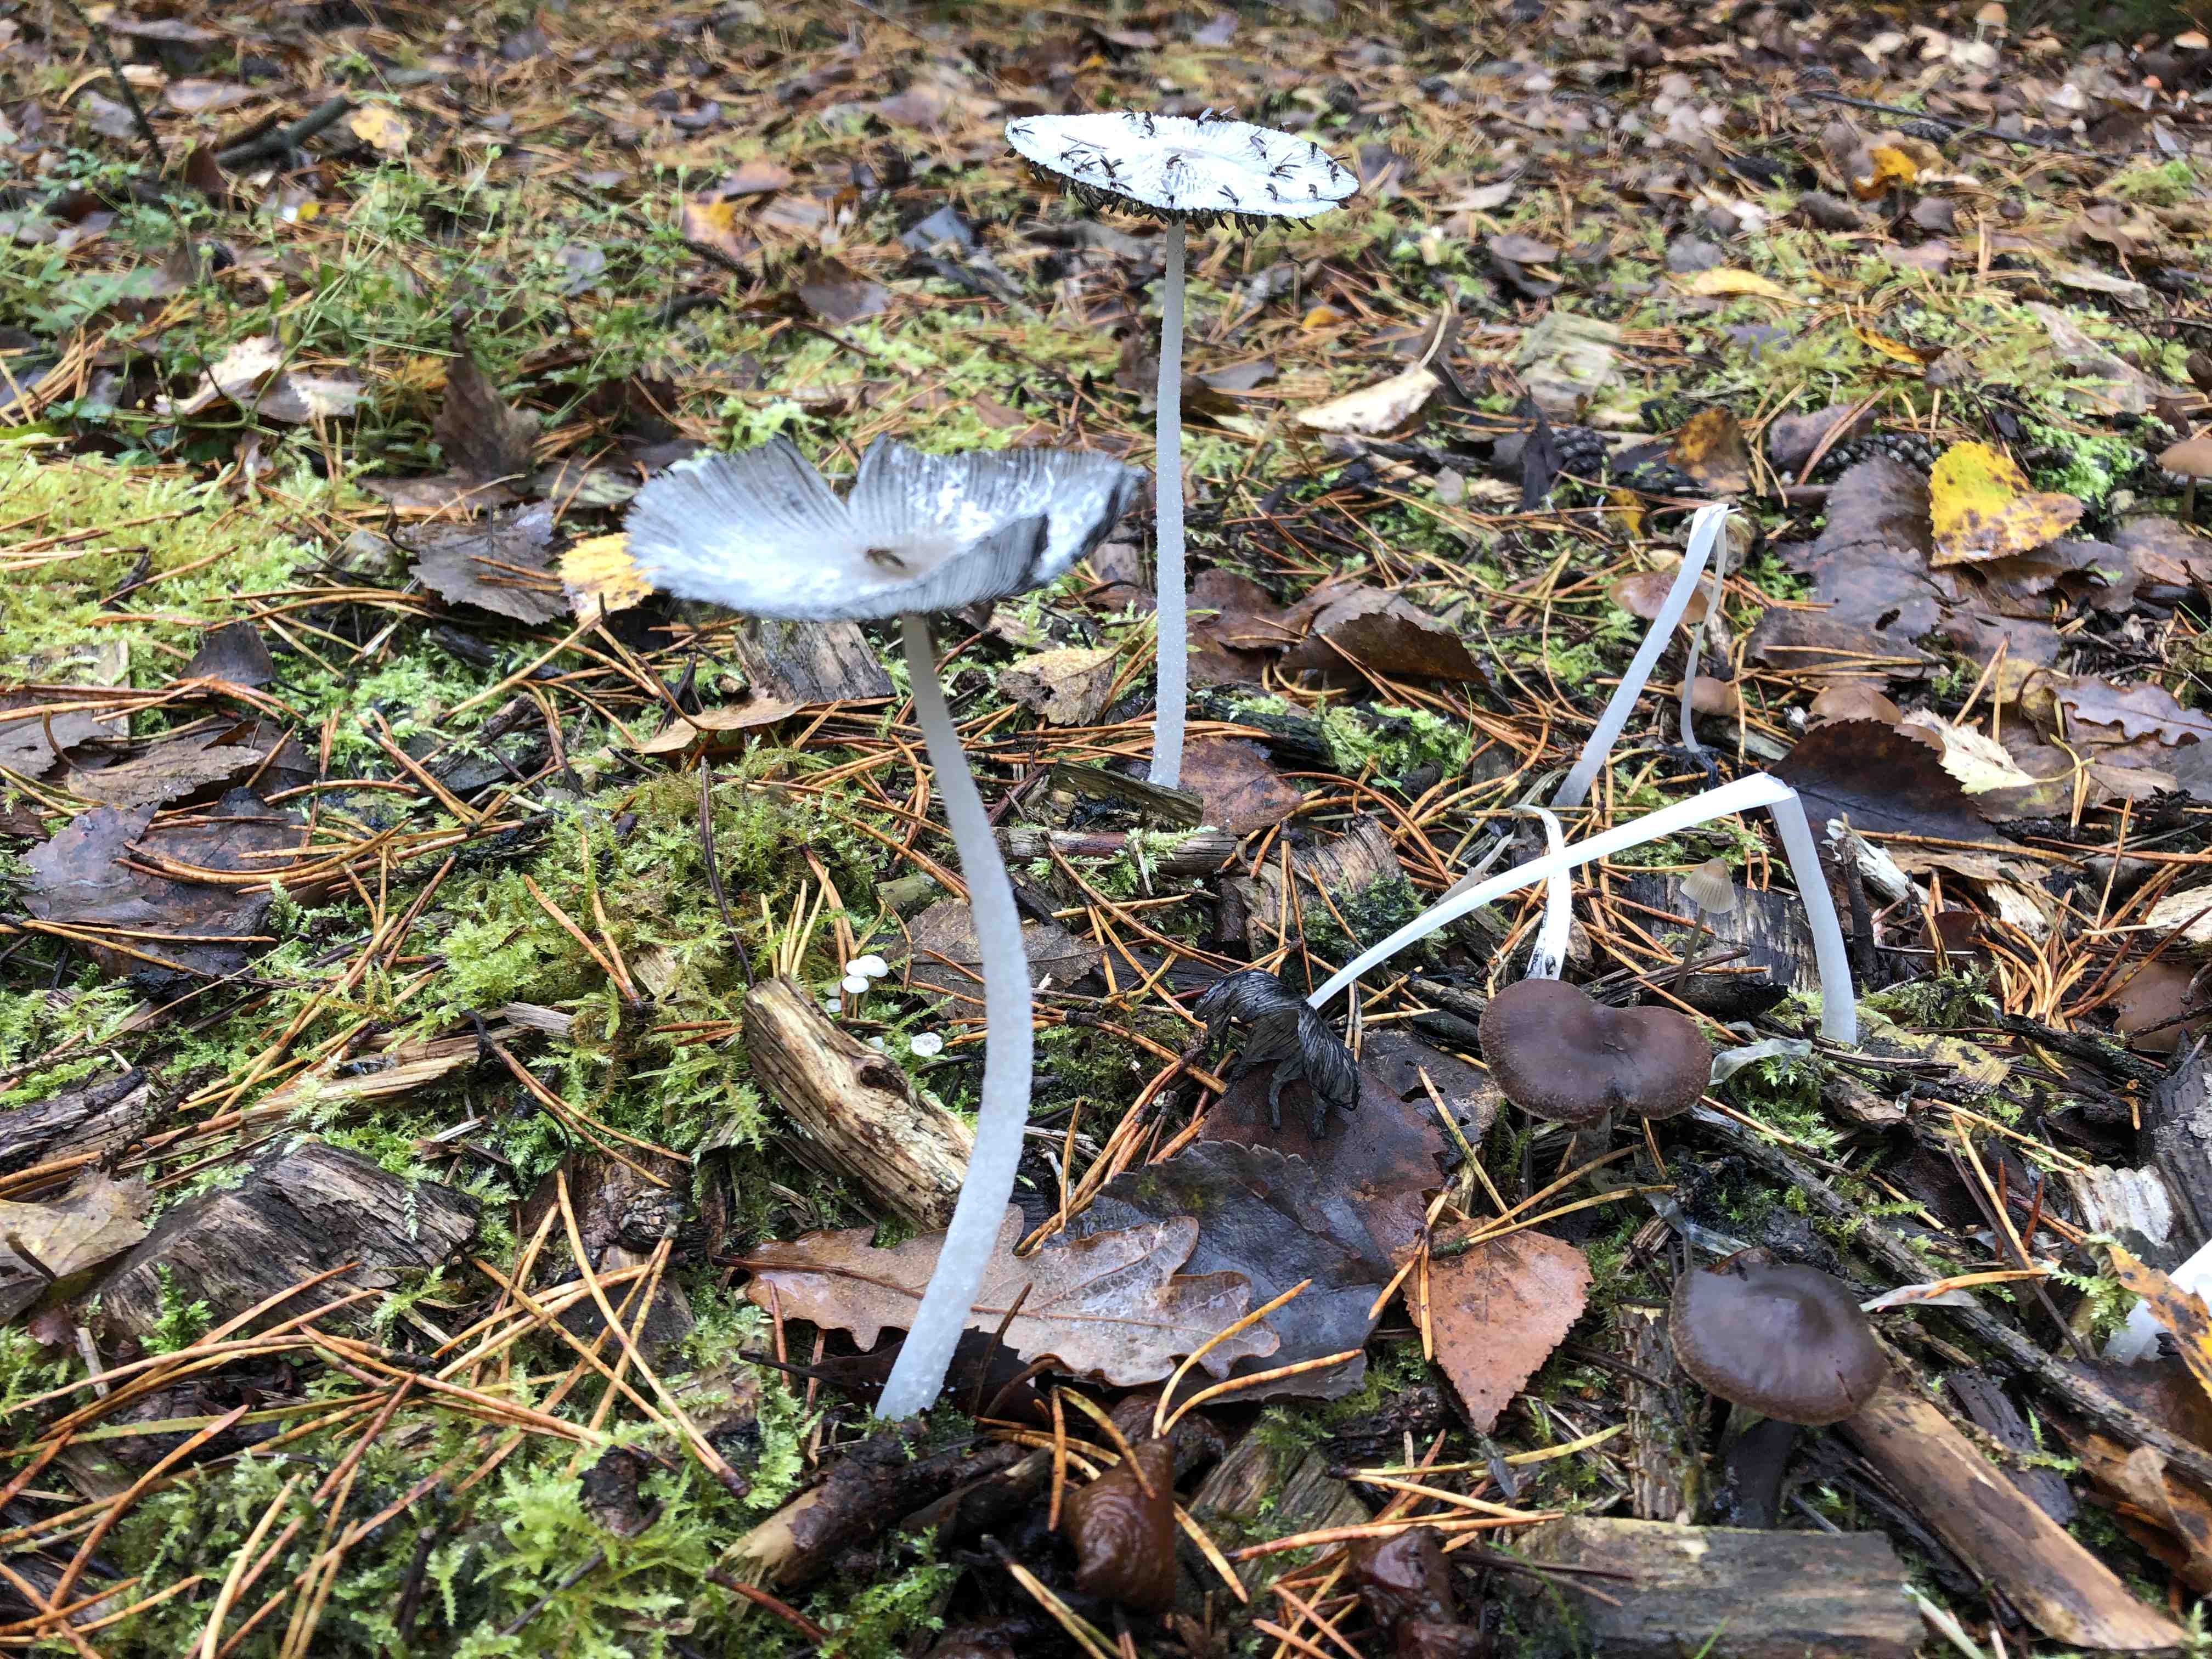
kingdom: Fungi
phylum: Basidiomycota
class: Agaricomycetes
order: Agaricales
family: Psathyrellaceae
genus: Coprinopsis
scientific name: Coprinopsis lagopus
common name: dunstokket blækhat
